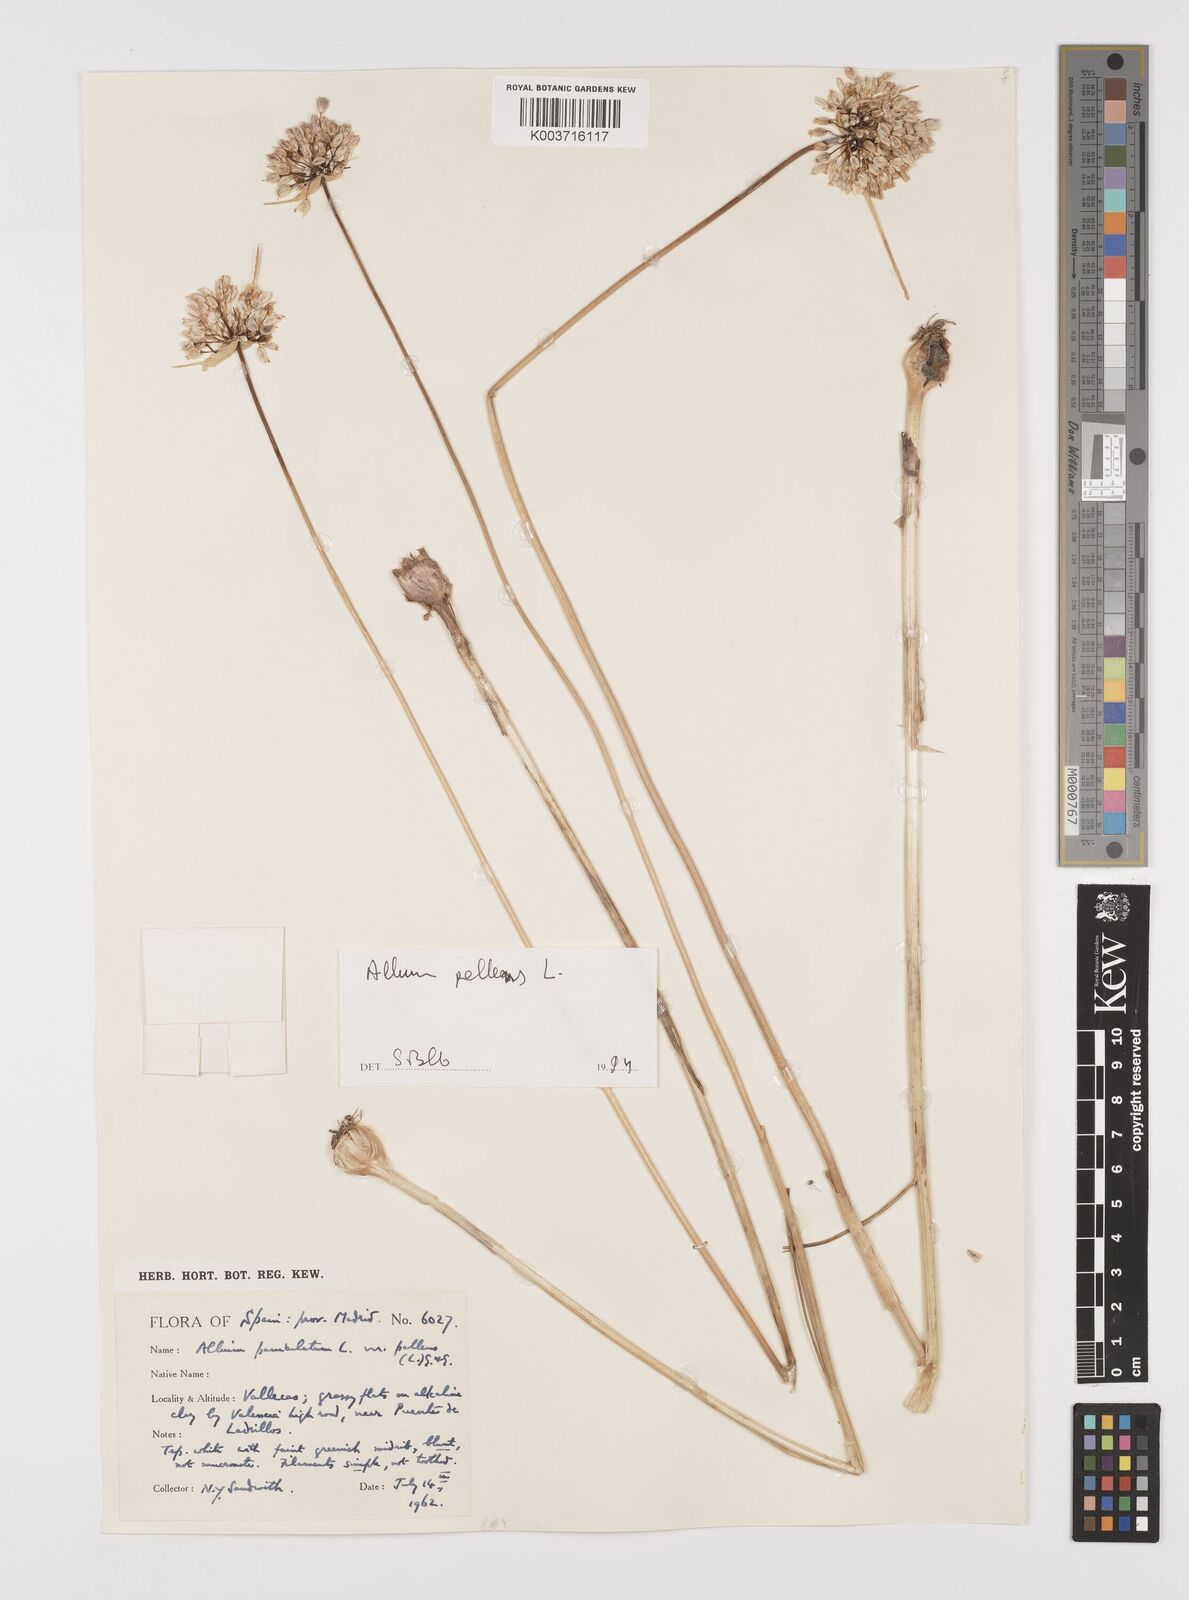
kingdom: Plantae
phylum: Tracheophyta
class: Liliopsida
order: Asparagales
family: Amaryllidaceae
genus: Allium
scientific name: Allium pallens
